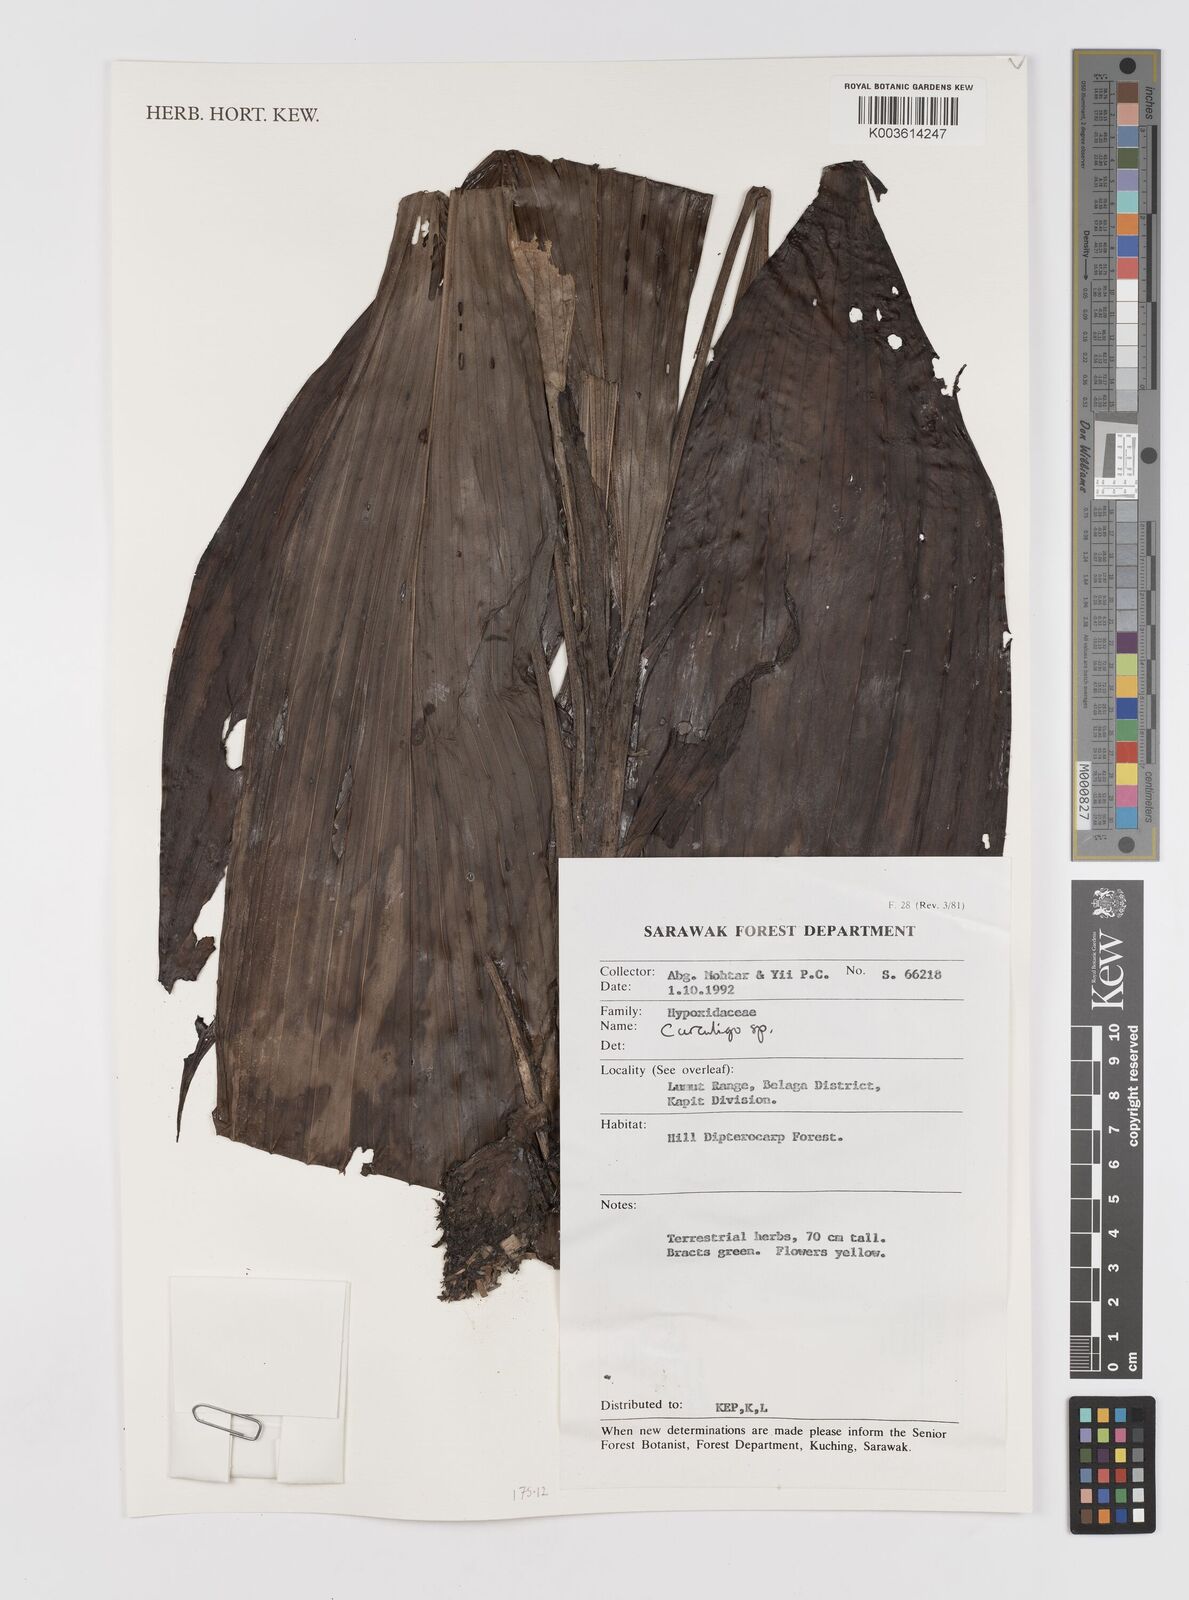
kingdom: Plantae
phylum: Tracheophyta
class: Liliopsida
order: Asparagales
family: Hypoxidaceae
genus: Curculigo
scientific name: Curculigo
